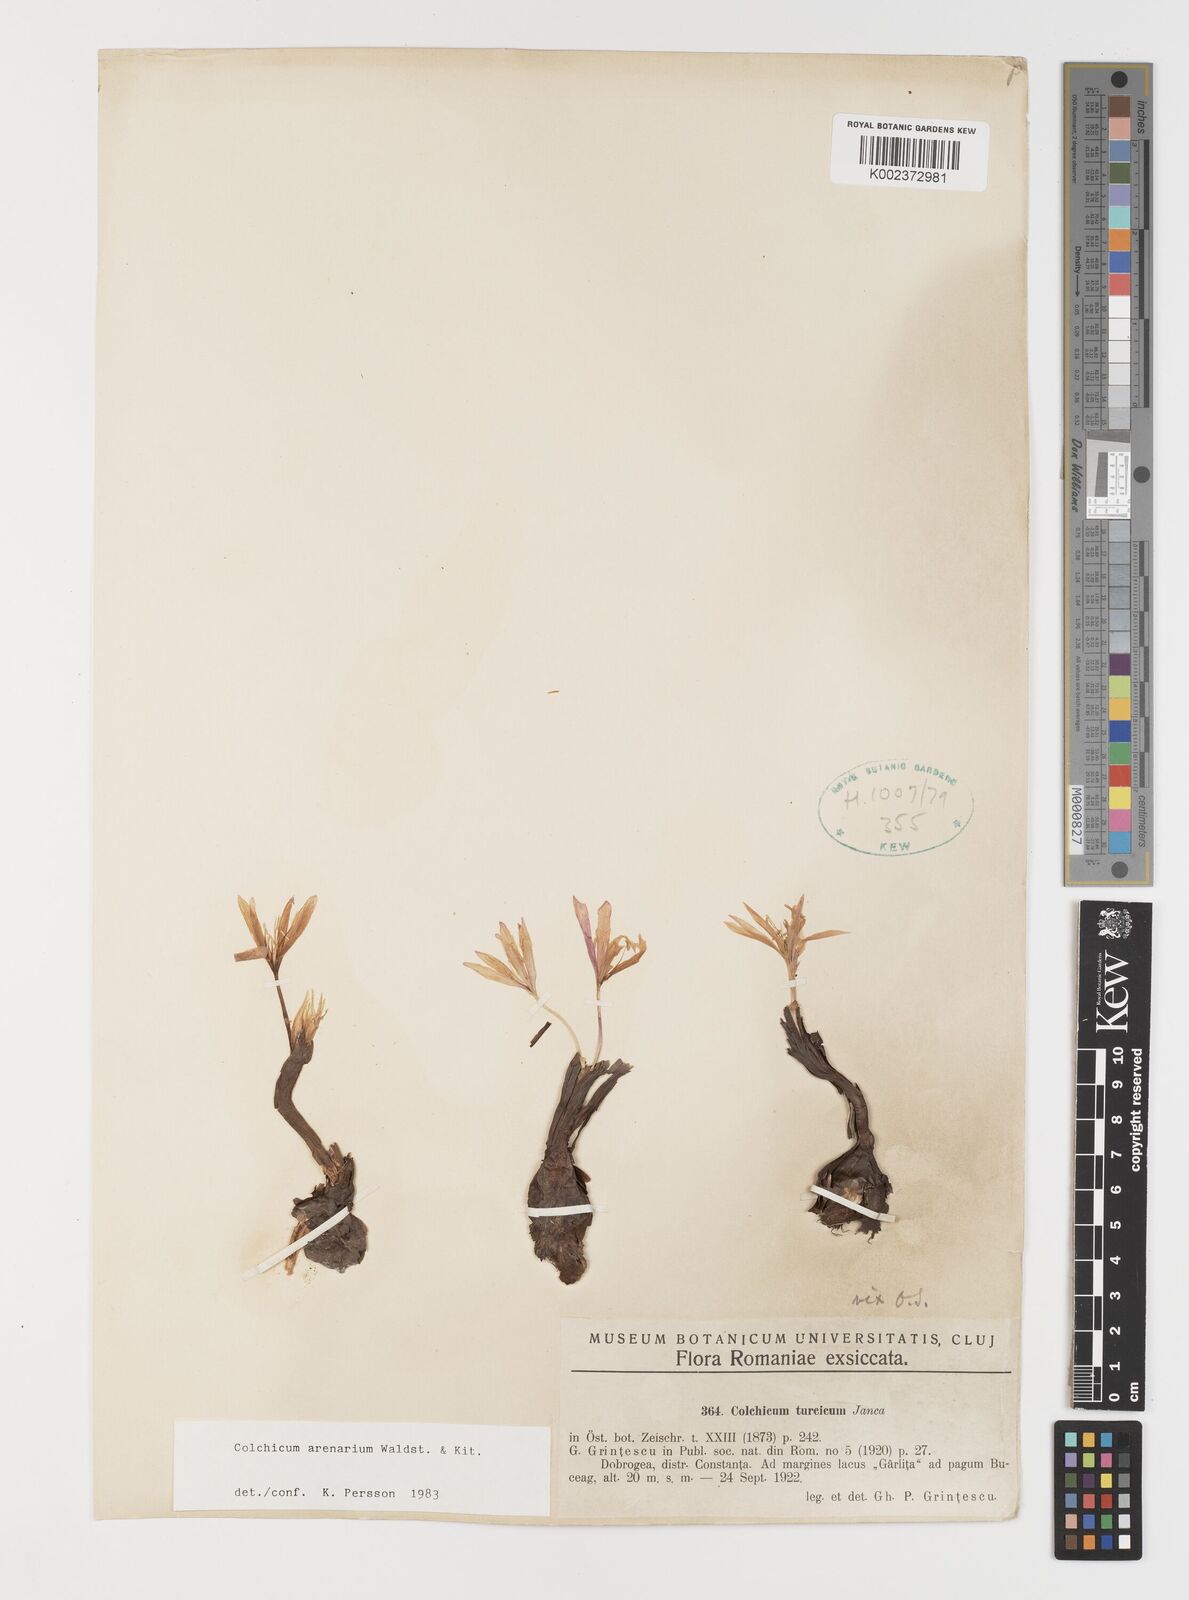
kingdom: Plantae
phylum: Tracheophyta
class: Liliopsida
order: Liliales
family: Colchicaceae
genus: Colchicum
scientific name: Colchicum arenarium
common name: Sand saffron
